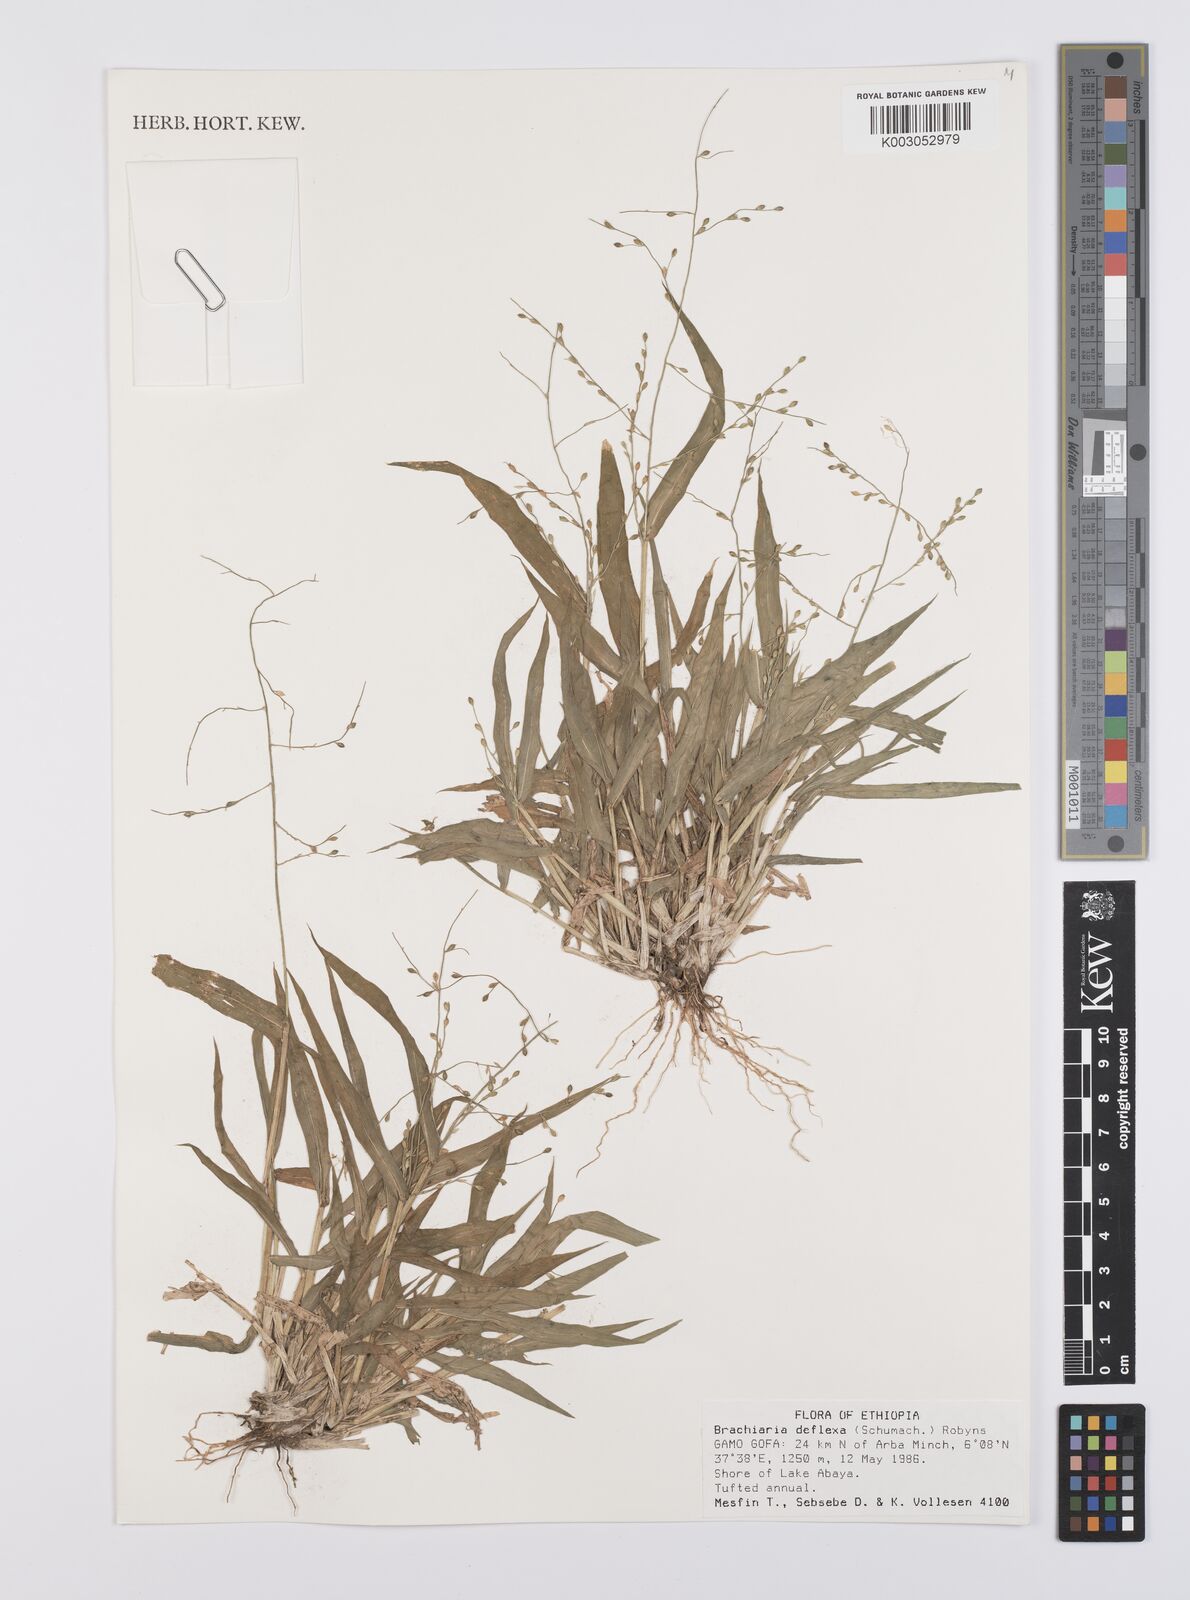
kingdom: Plantae
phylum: Tracheophyta
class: Liliopsida
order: Poales
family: Poaceae
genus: Urochloa
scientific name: Urochloa deflexa
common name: Guinea millet
